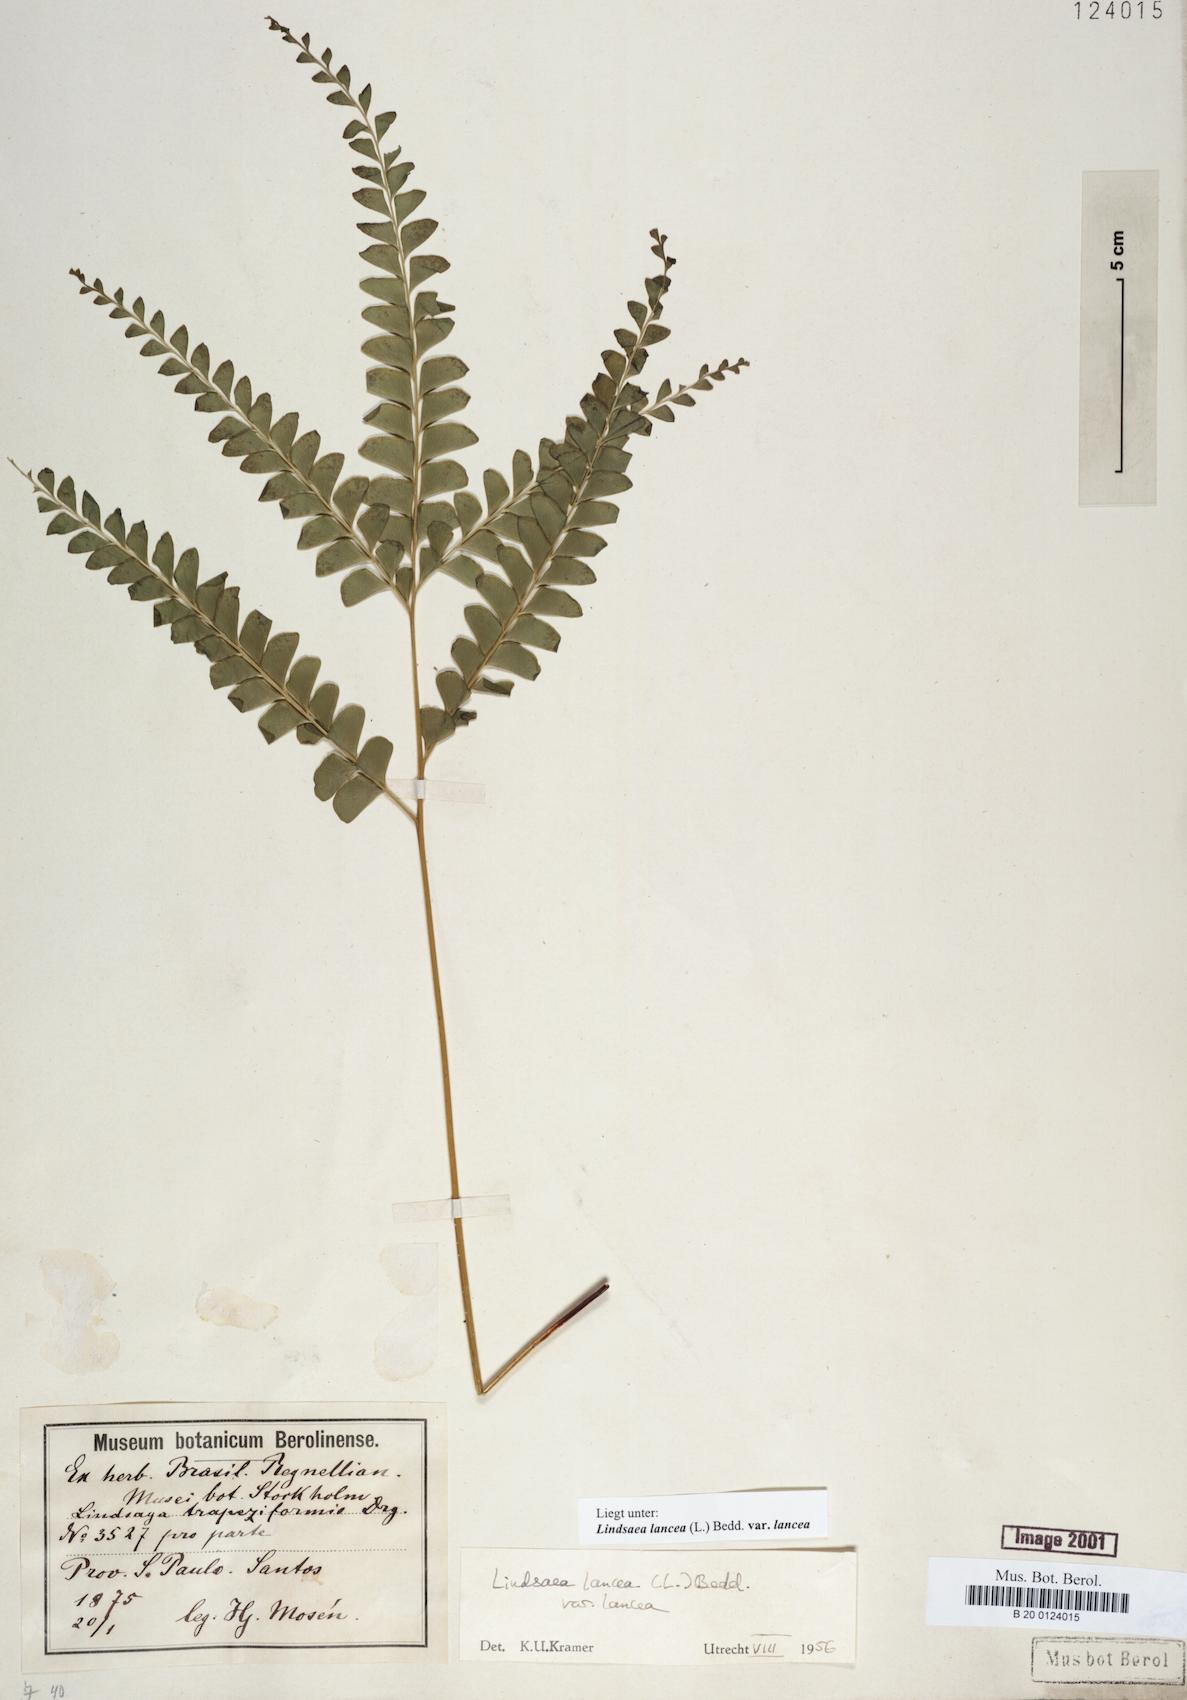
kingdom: Plantae
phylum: Tracheophyta
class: Polypodiopsida
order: Polypodiales
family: Lindsaeaceae
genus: Lindsaea
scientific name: Lindsaea lancea
